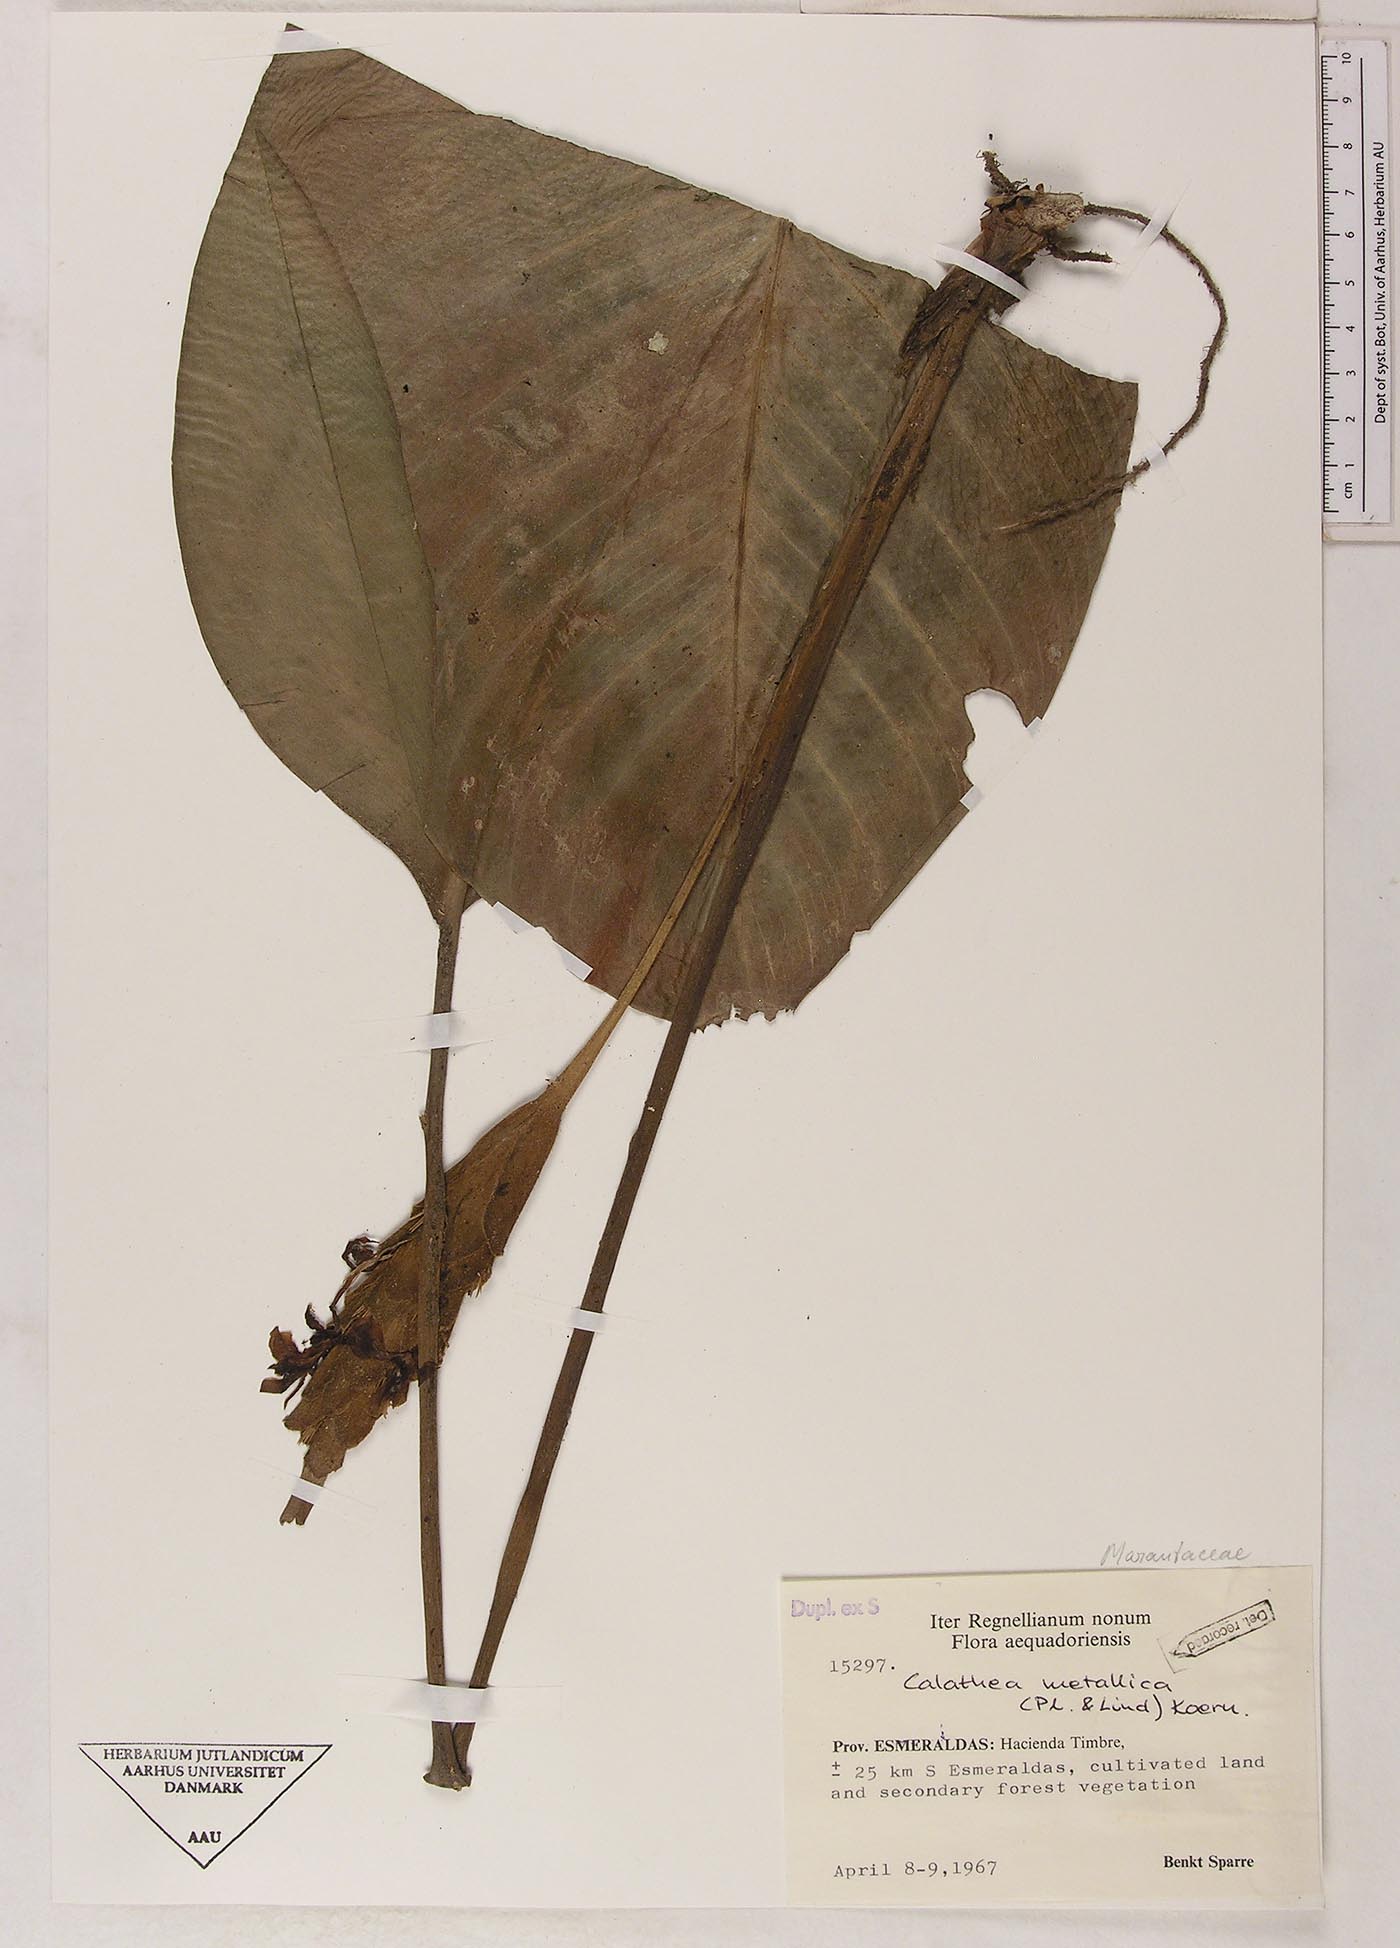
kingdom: Plantae
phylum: Tracheophyta
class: Liliopsida
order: Zingiberales
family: Marantaceae
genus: Goeppertia
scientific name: Goeppertia metallica
